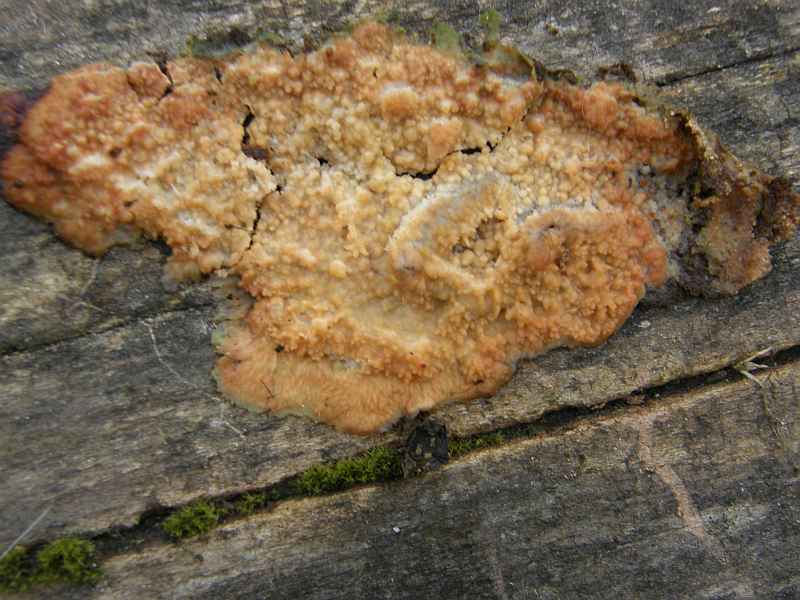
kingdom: Fungi
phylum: Basidiomycota
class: Agaricomycetes
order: Polyporales
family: Meruliaceae
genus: Phlebia
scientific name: Phlebia radiata
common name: stråle-åresvamp
